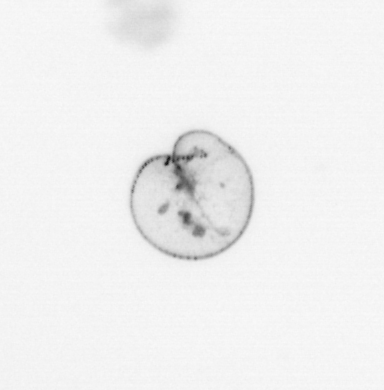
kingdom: Chromista
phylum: Myzozoa
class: Dinophyceae
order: Noctilucales
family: Noctilucaceae
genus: Noctiluca
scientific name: Noctiluca scintillans
